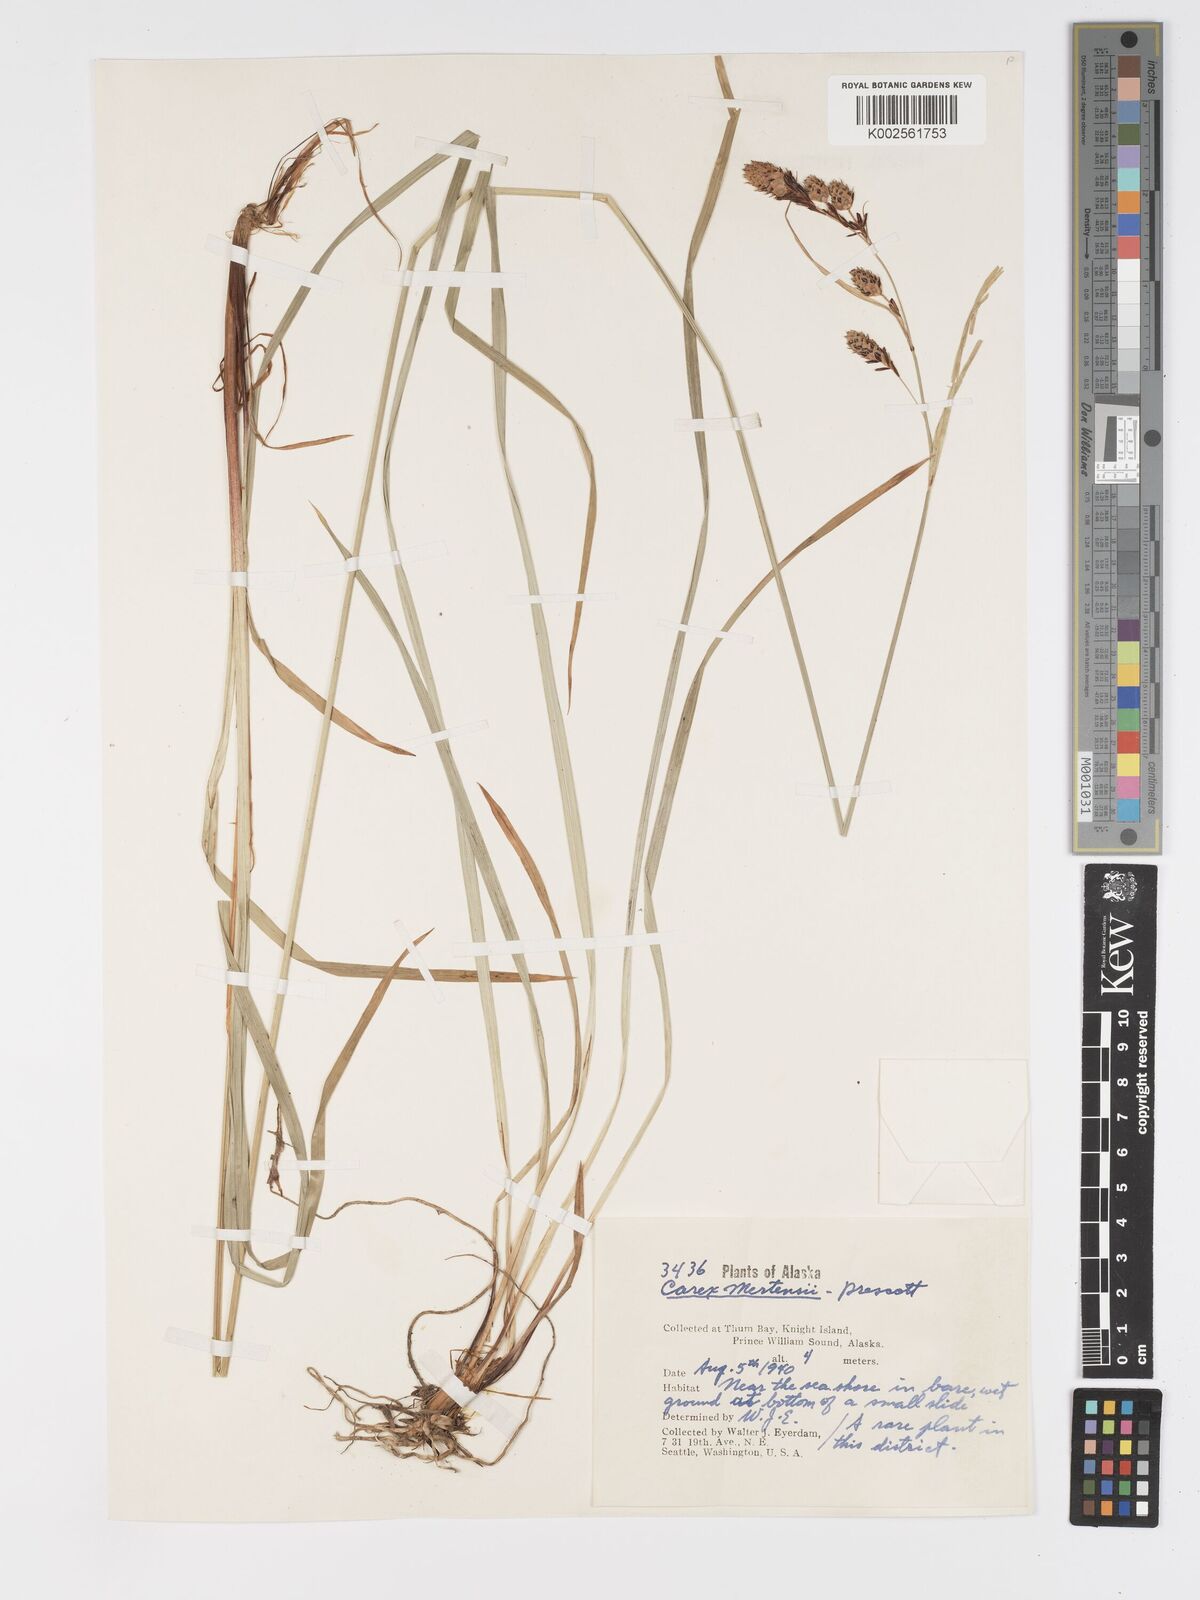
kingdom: Plantae
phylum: Tracheophyta
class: Liliopsida
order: Poales
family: Cyperaceae
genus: Carex
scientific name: Carex mertensii
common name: Mertens' sedge
